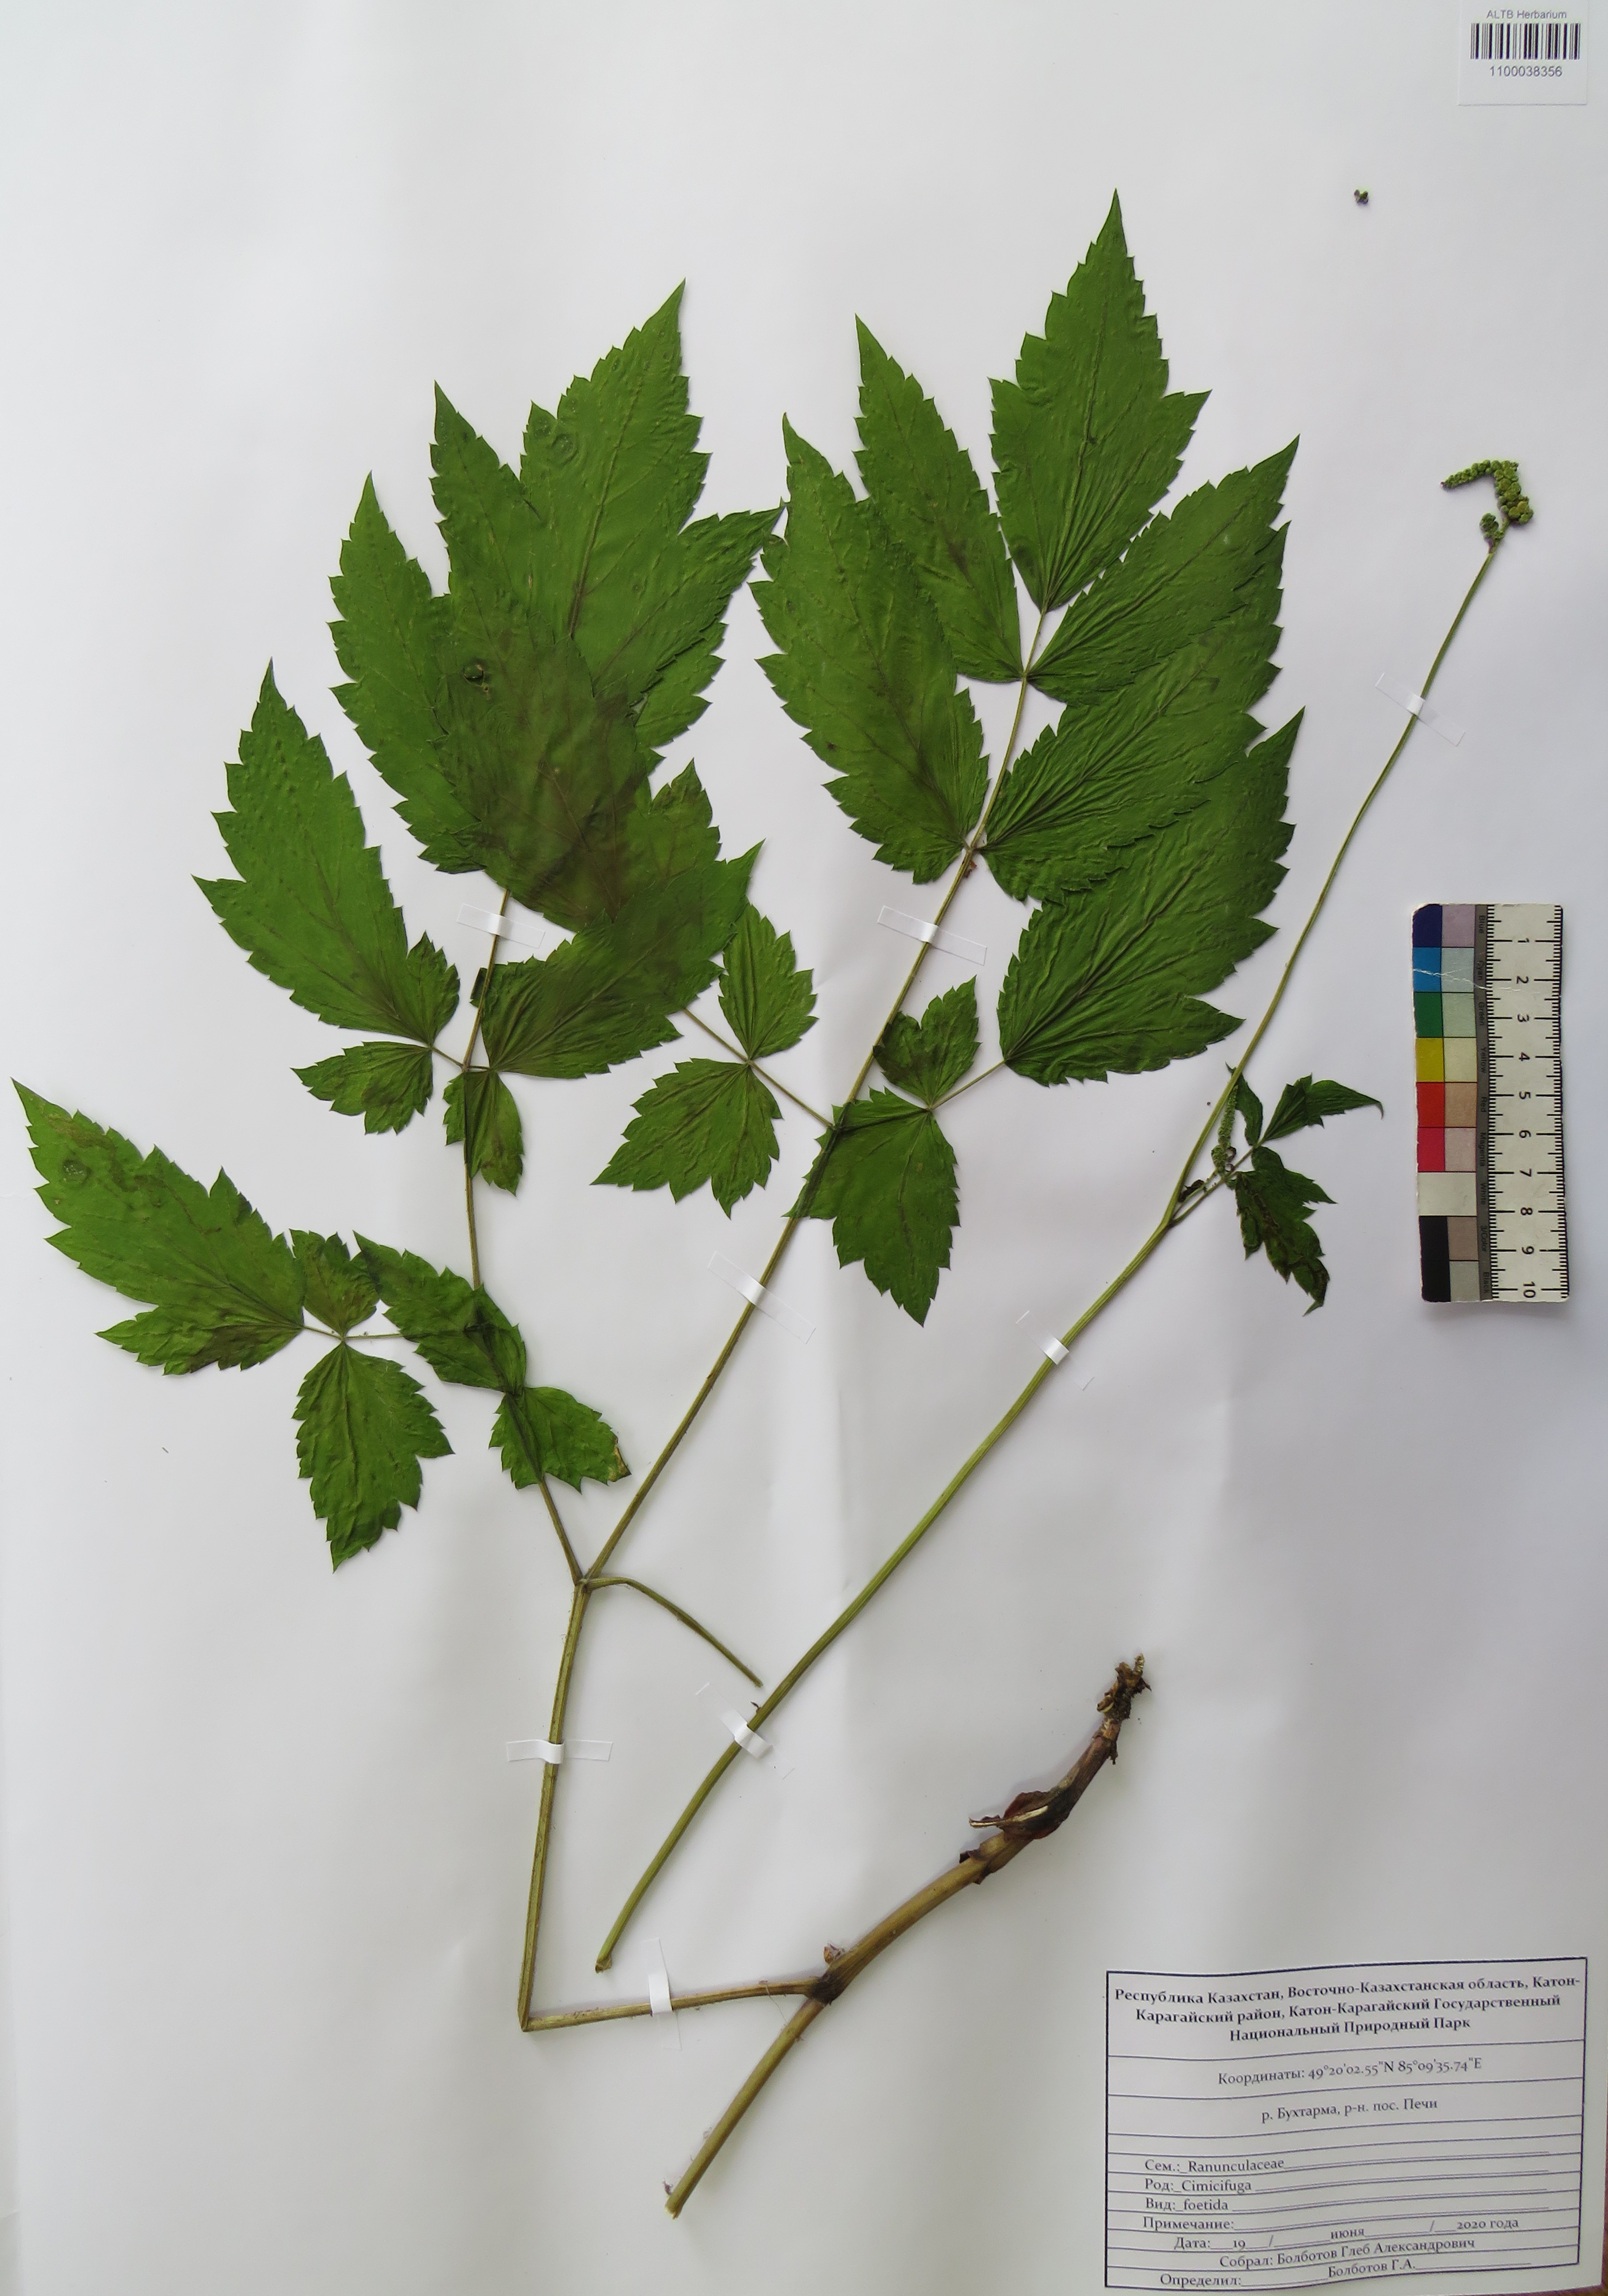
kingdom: Plantae
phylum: Tracheophyta
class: Magnoliopsida
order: Ranunculales
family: Ranunculaceae
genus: Actaea
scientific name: Actaea cimicifuga
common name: Chinese cimicifuga
